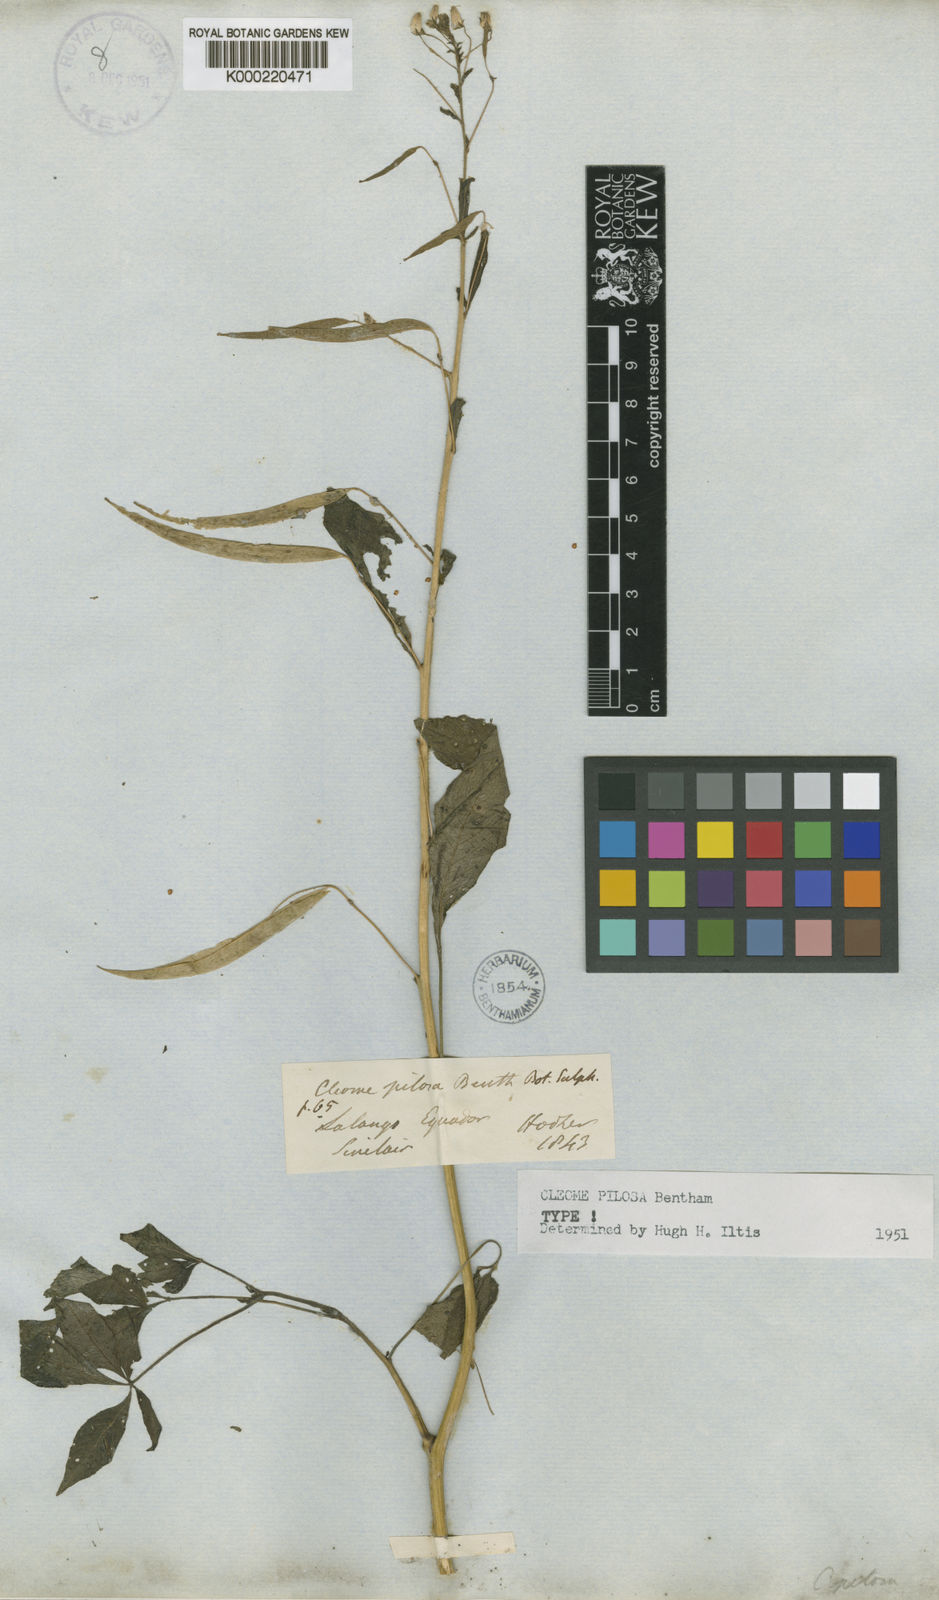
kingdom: Plantae
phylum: Tracheophyta
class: Magnoliopsida
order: Brassicales
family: Cleomaceae
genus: Cochranella
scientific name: Cochranella pilosa
